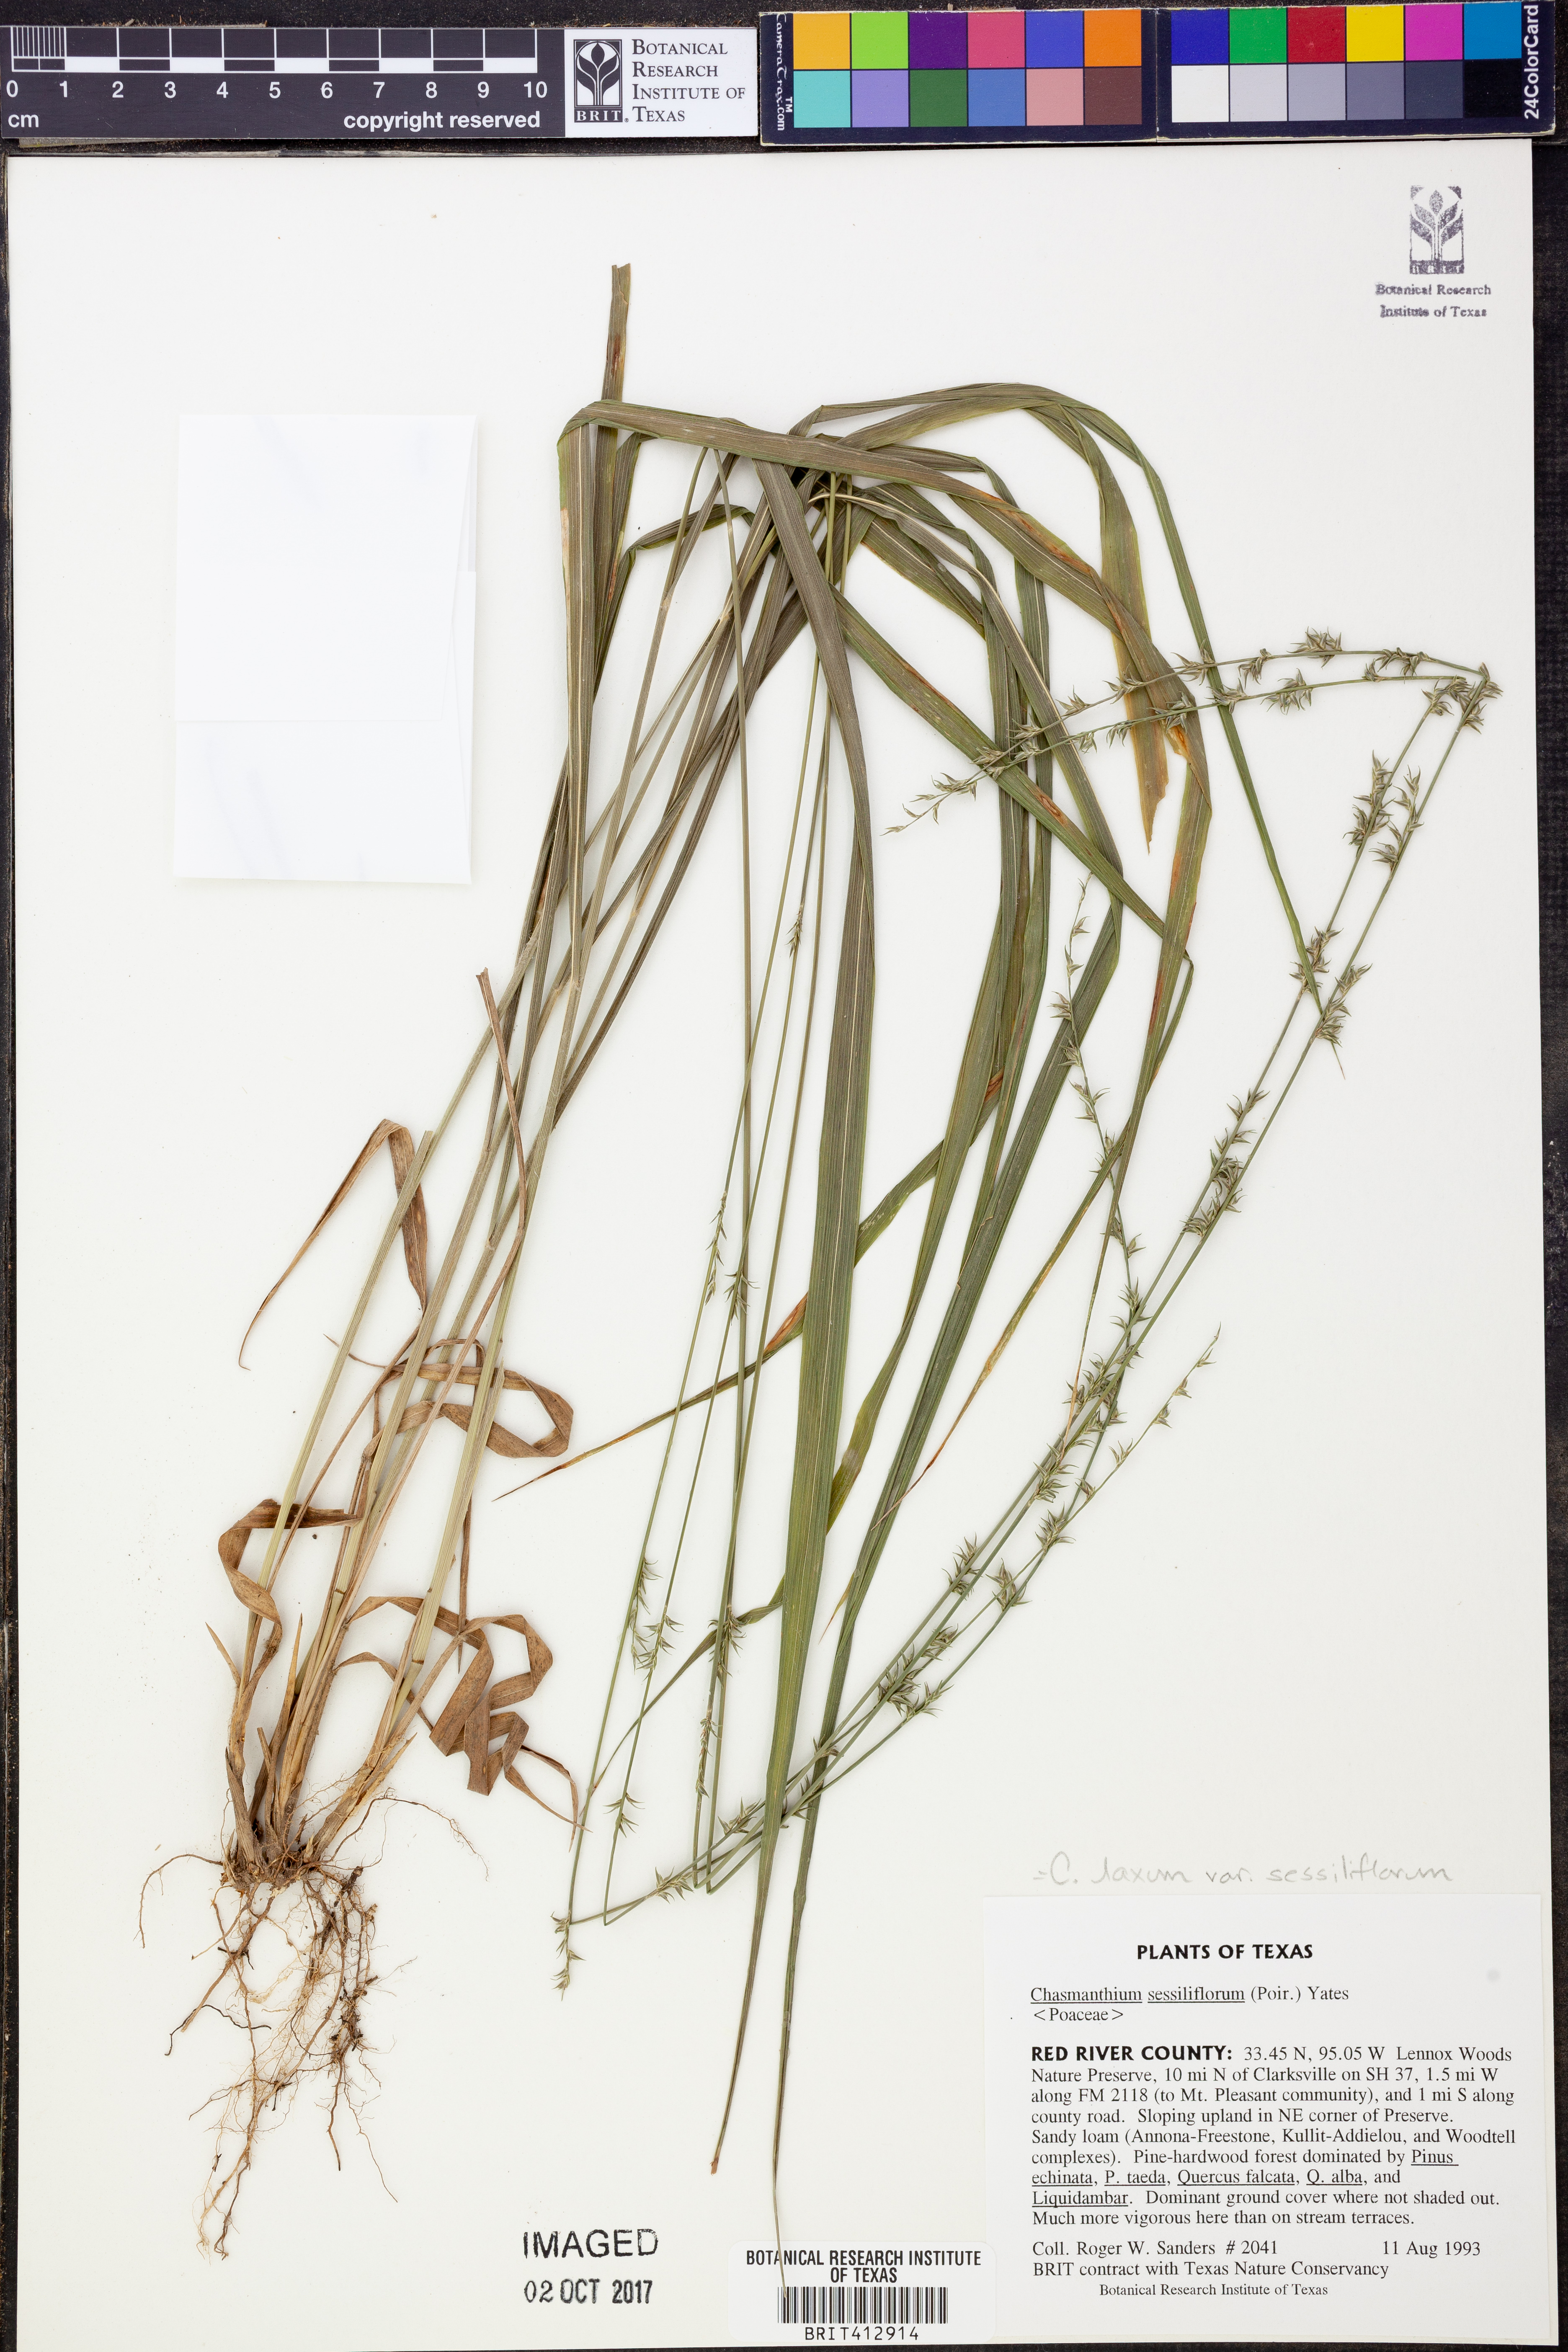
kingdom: Plantae
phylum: Tracheophyta
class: Liliopsida
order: Poales
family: Poaceae
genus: Chasmanthium
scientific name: Chasmanthium laxum
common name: Slender chasmanthium
